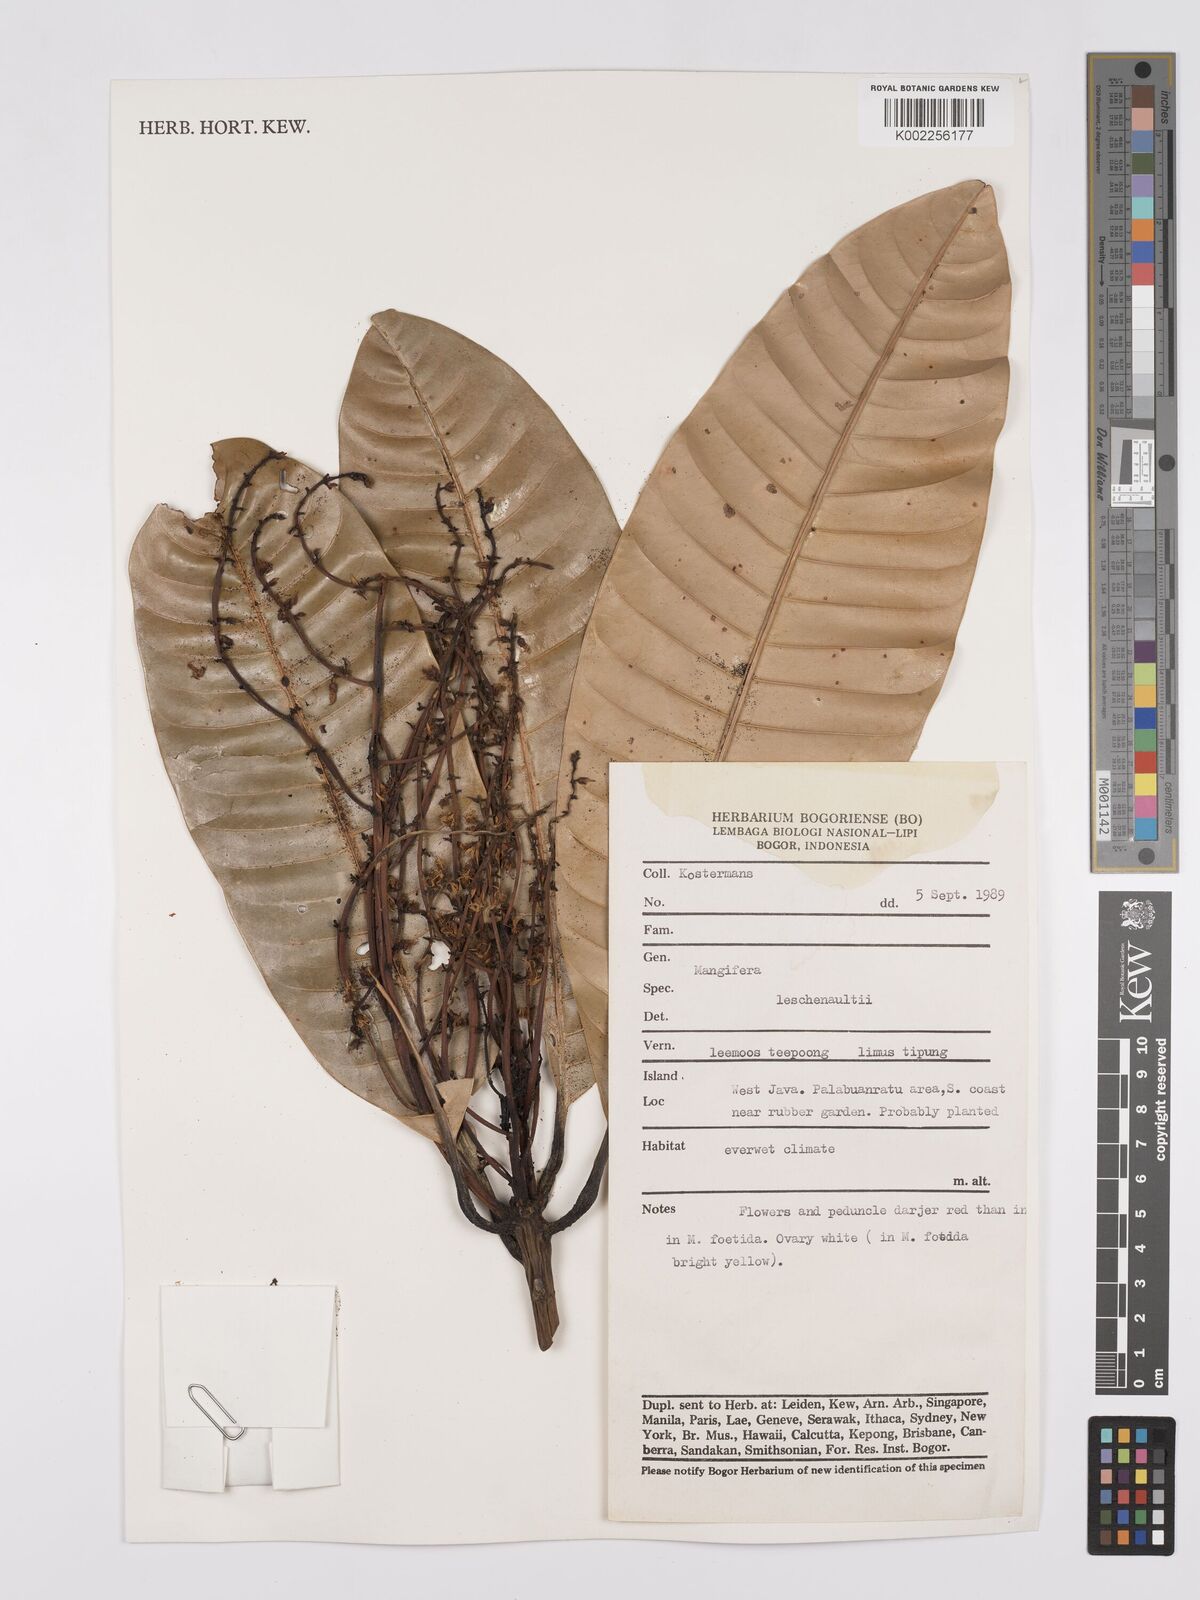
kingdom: Plantae
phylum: Tracheophyta
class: Magnoliopsida
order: Sapindales
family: Anacardiaceae
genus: Mangifera
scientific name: Mangifera foetida
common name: Horse mango
